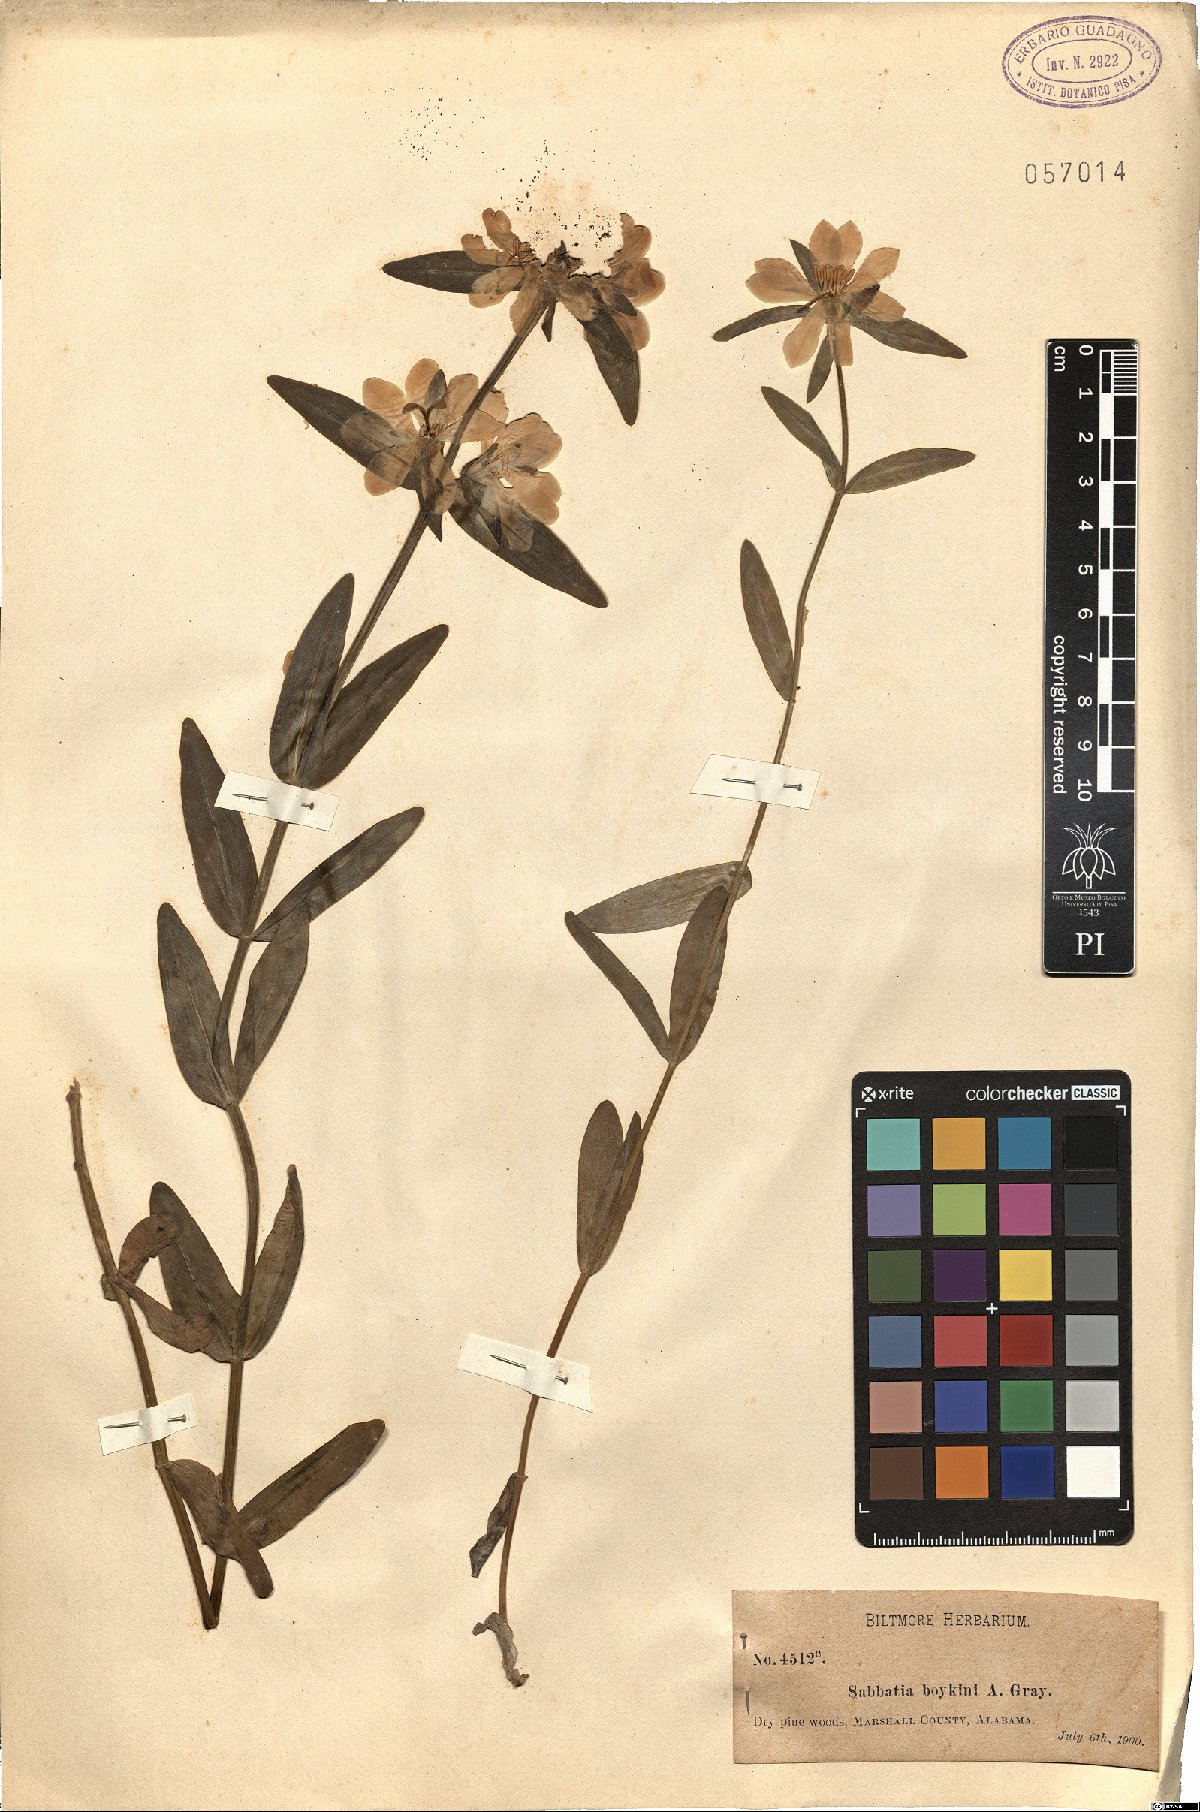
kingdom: Plantae
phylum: Tracheophyta
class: Magnoliopsida
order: Gentianales
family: Gentianaceae
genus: Sabbatia
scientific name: Sabbatia
